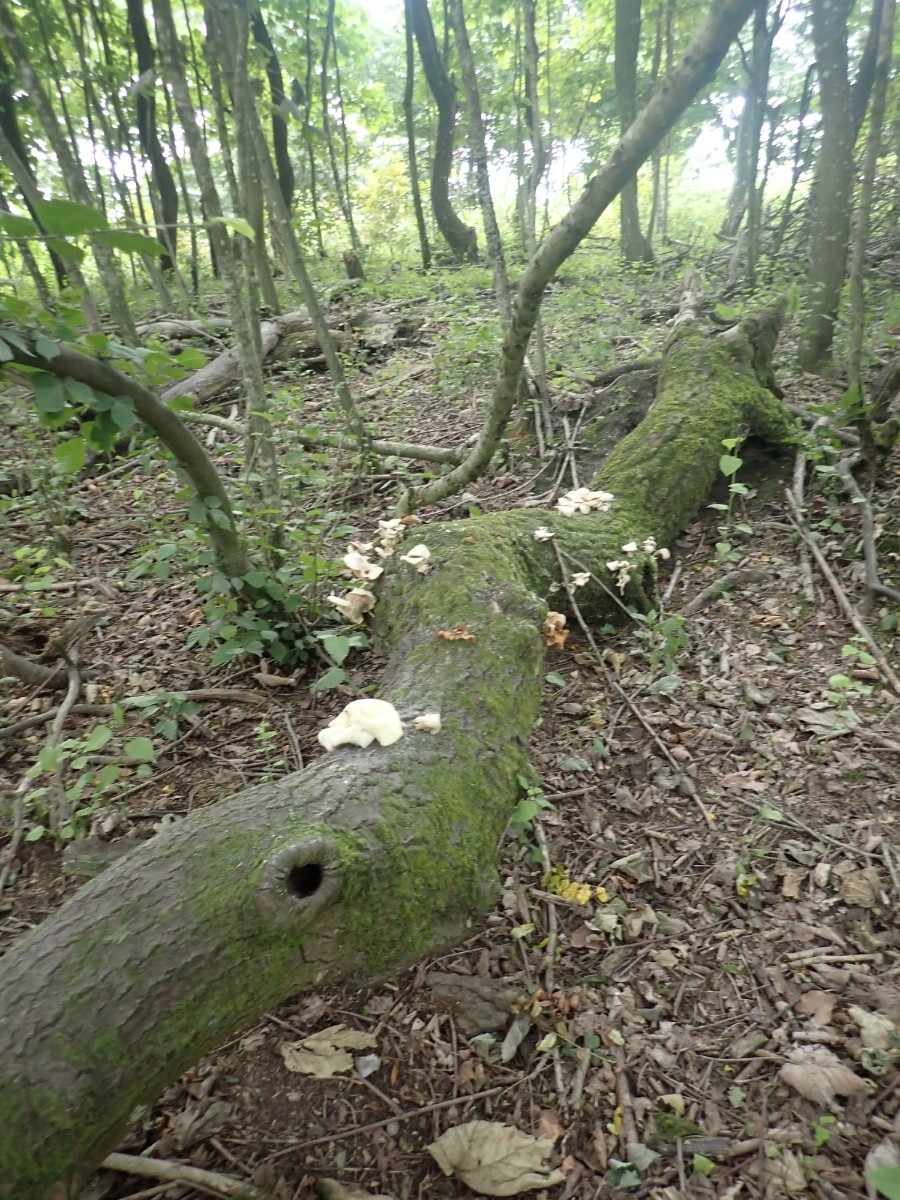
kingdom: Fungi
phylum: Basidiomycota
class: Agaricomycetes
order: Agaricales
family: Pleurotaceae
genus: Pleurotus
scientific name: Pleurotus pulmonarius
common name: sommer-østershat
